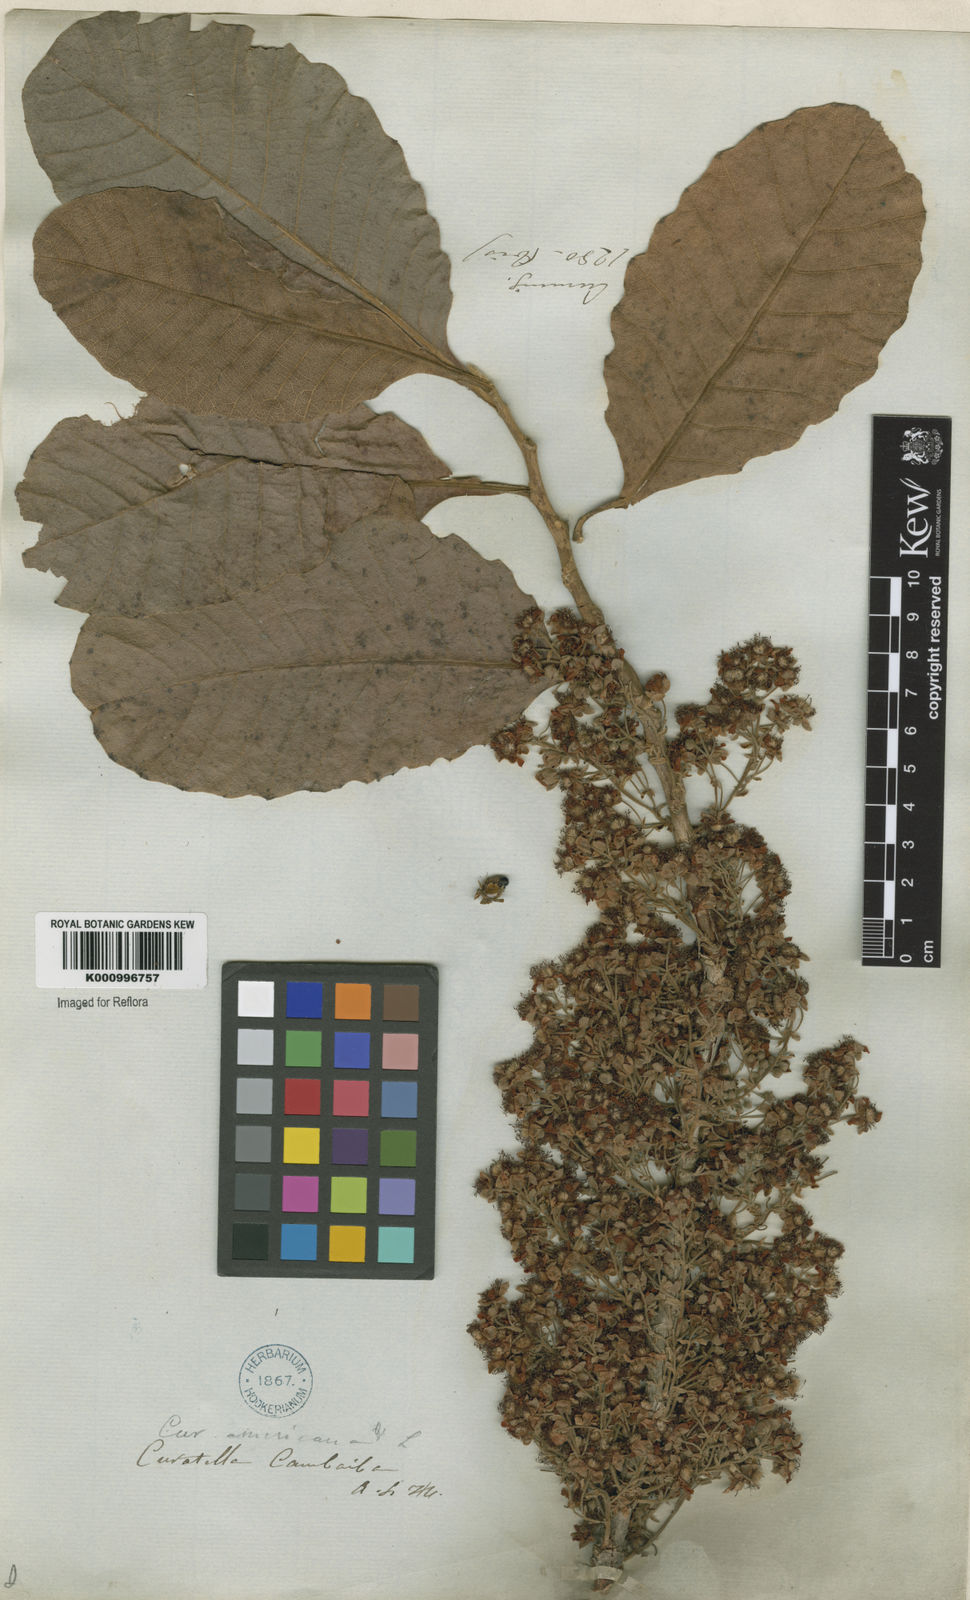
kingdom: Plantae
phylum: Tracheophyta
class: Magnoliopsida
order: Dilleniales
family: Dilleniaceae
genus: Curatella
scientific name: Curatella americana
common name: Sandpaper tree
